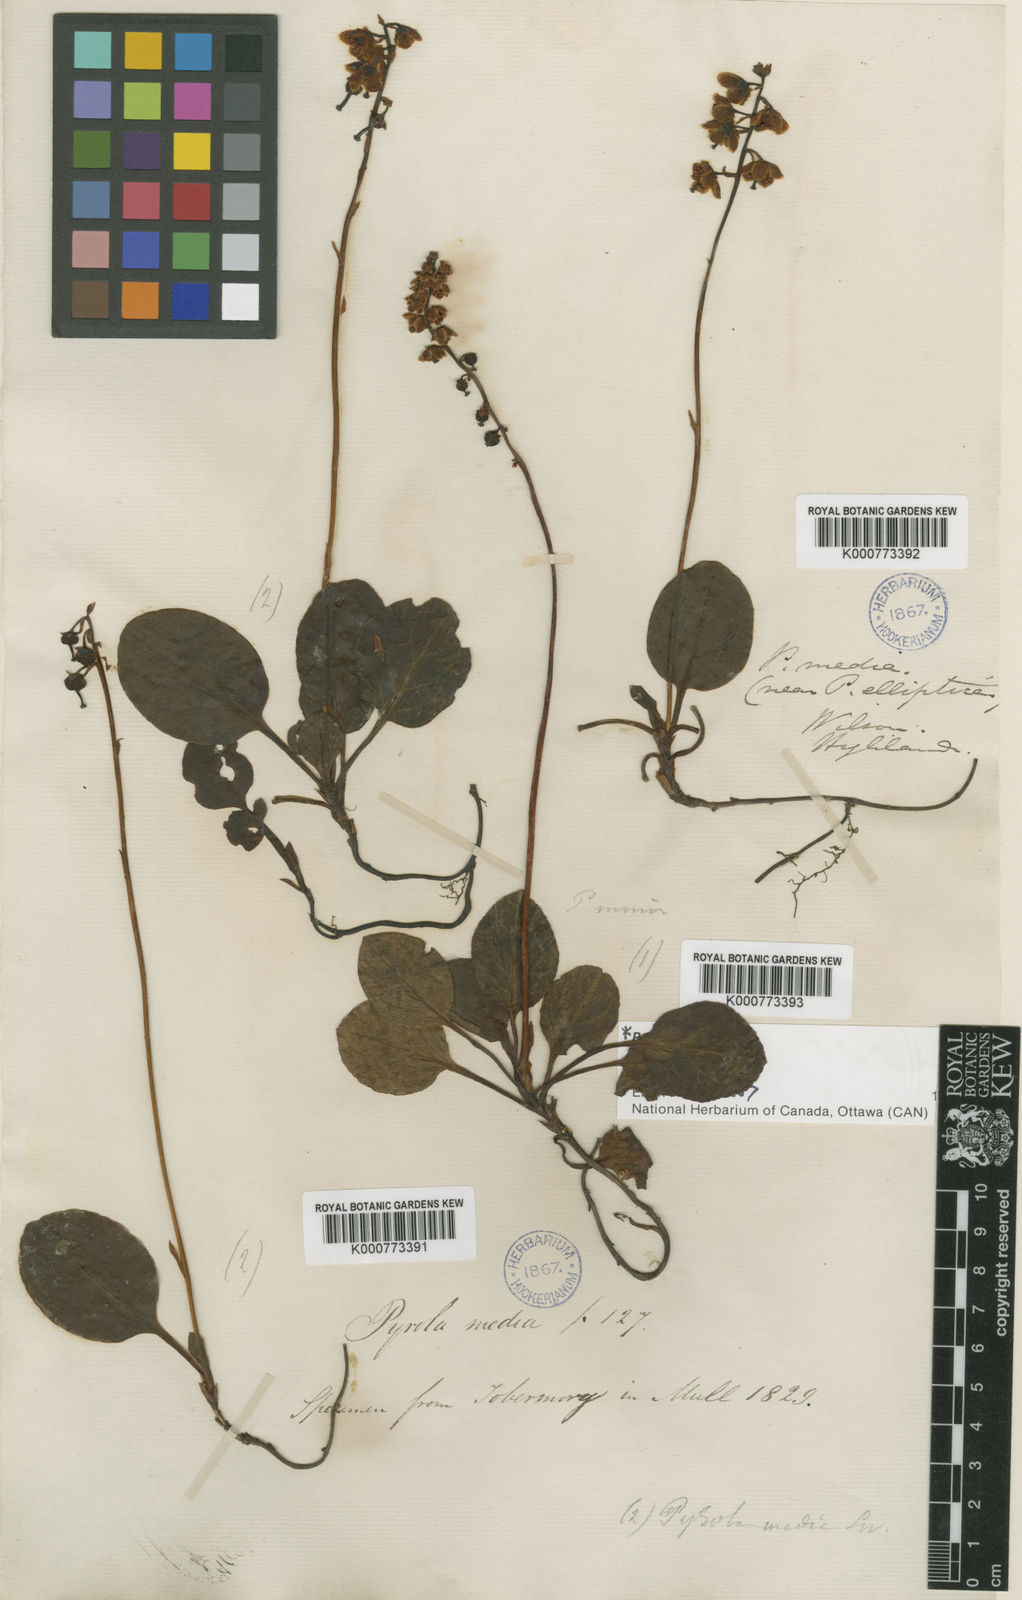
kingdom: Plantae
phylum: Tracheophyta
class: Magnoliopsida
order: Ericales
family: Ericaceae
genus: Pyrola
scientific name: Pyrola media
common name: Intermediate wintergreen
